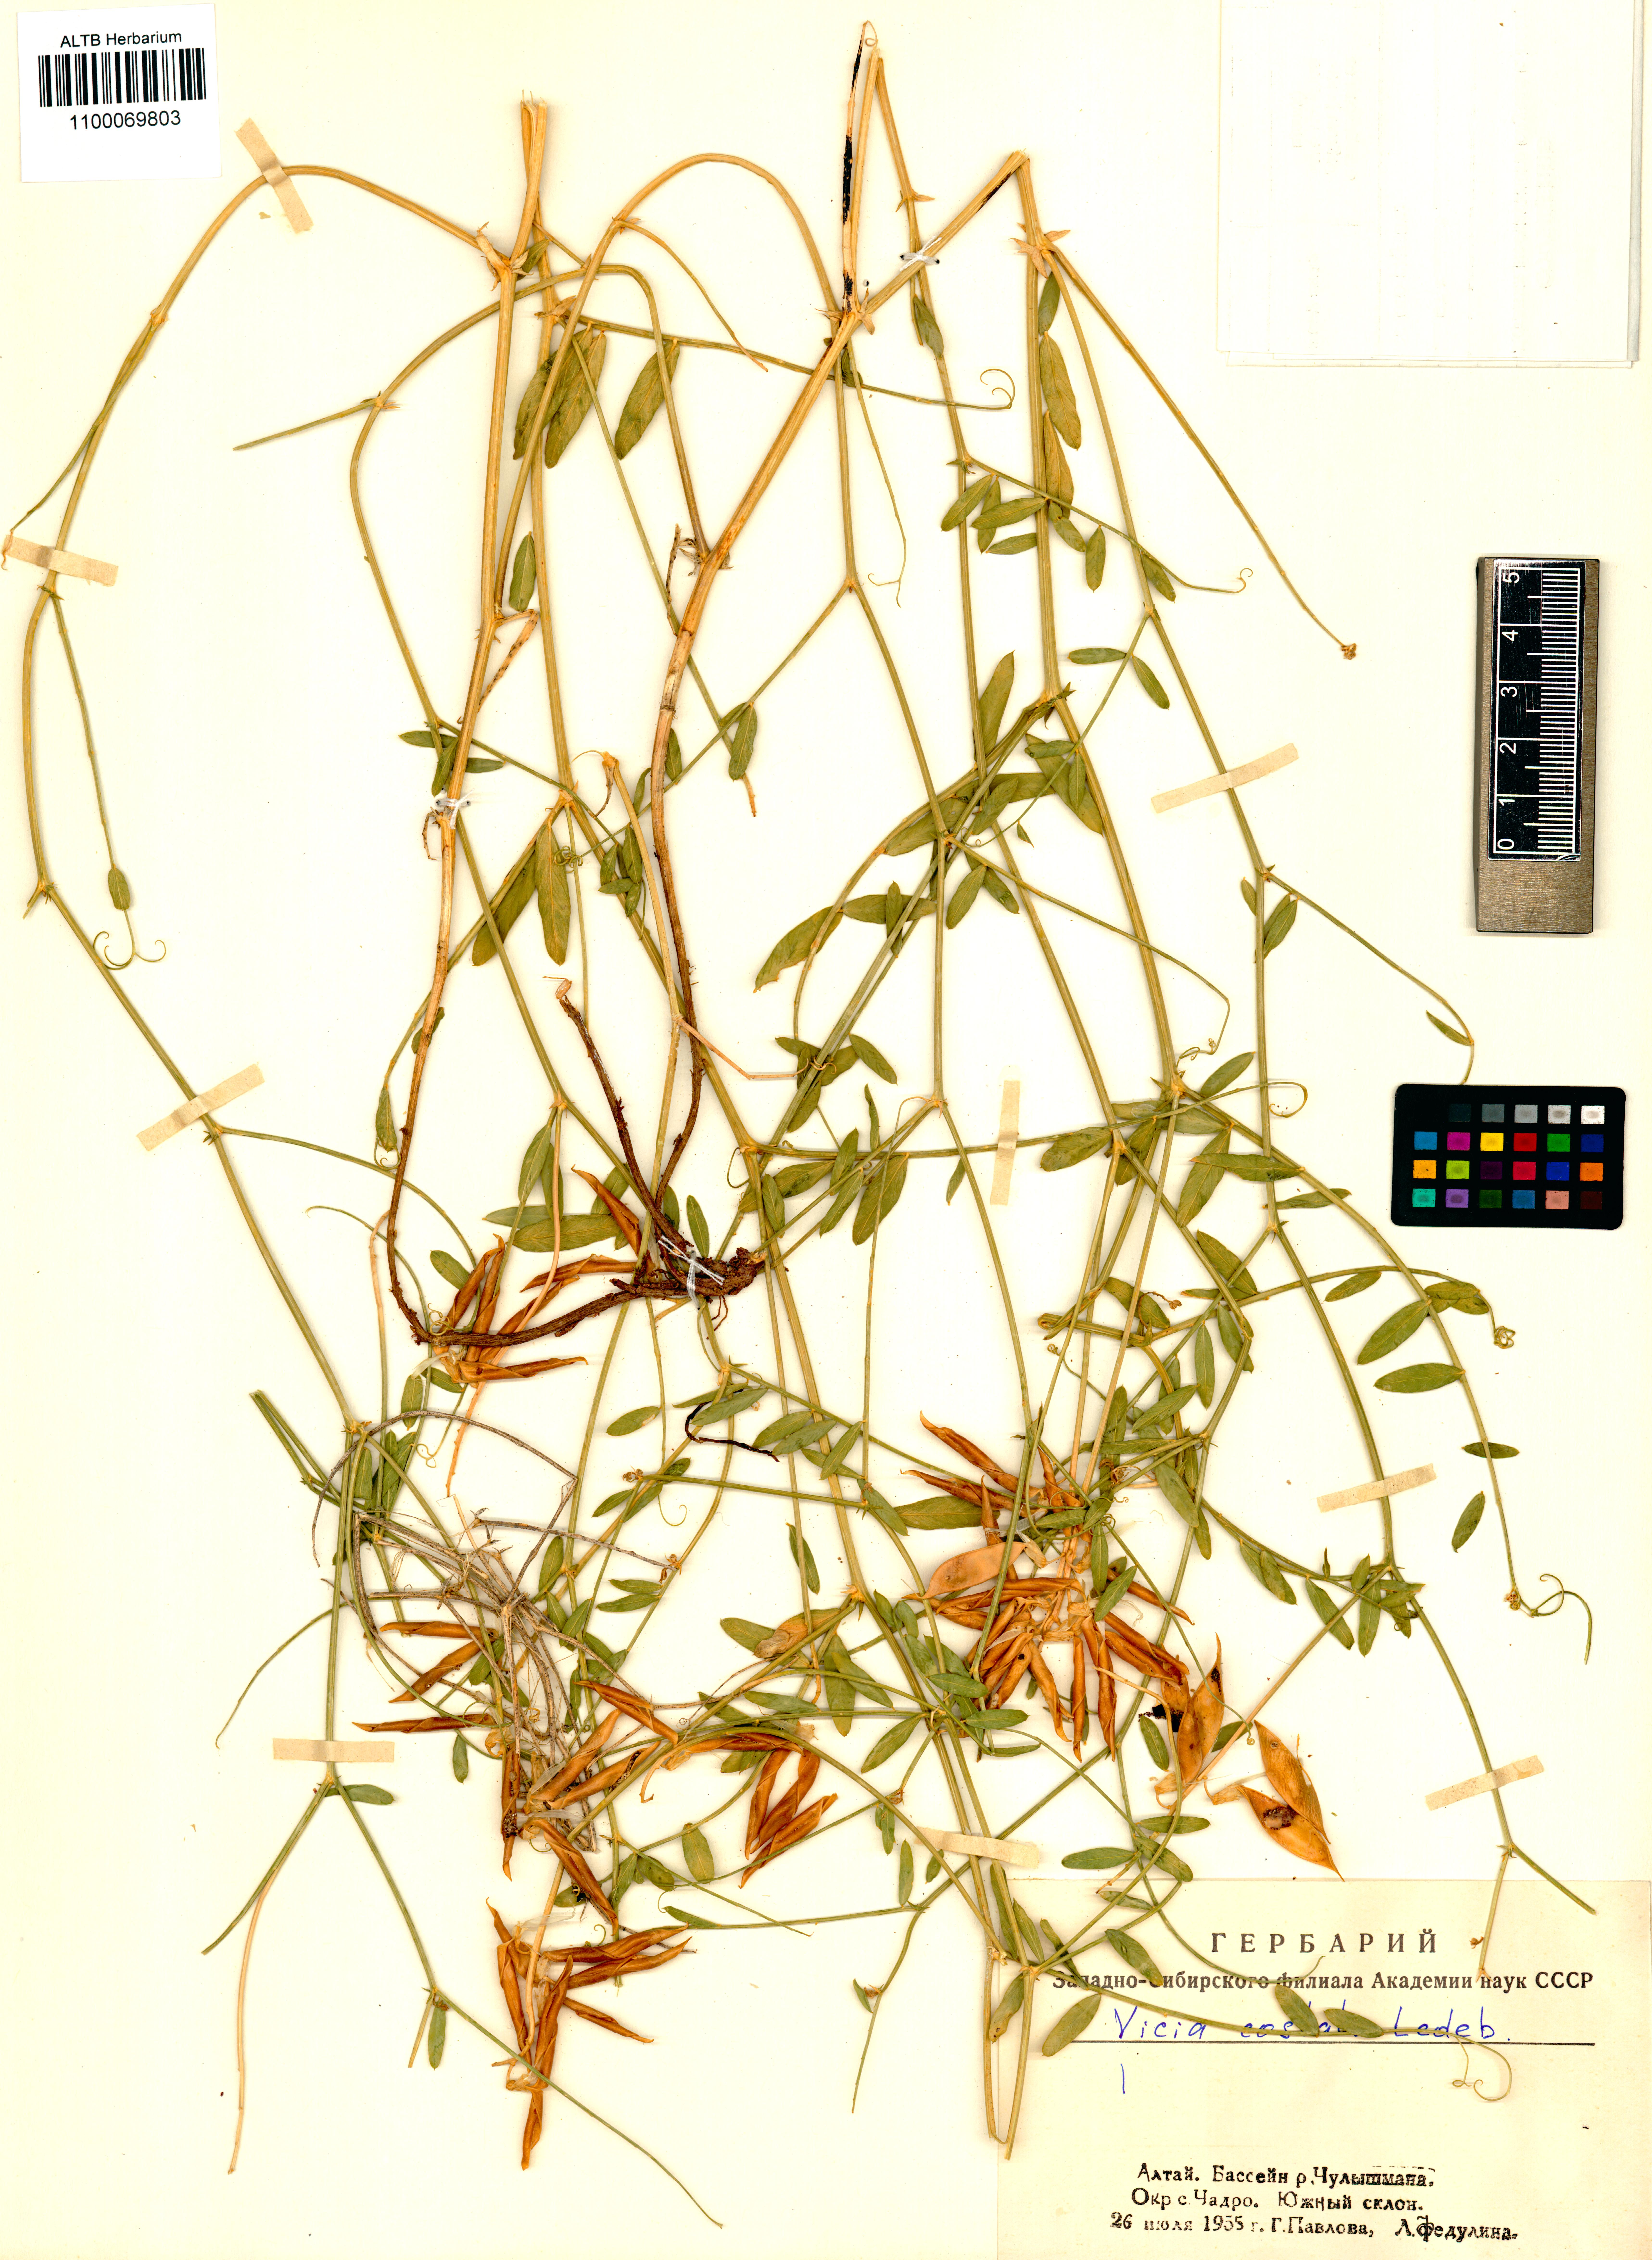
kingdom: Plantae
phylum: Tracheophyta
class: Magnoliopsida
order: Fabales
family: Fabaceae
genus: Vicia
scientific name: Vicia costata
